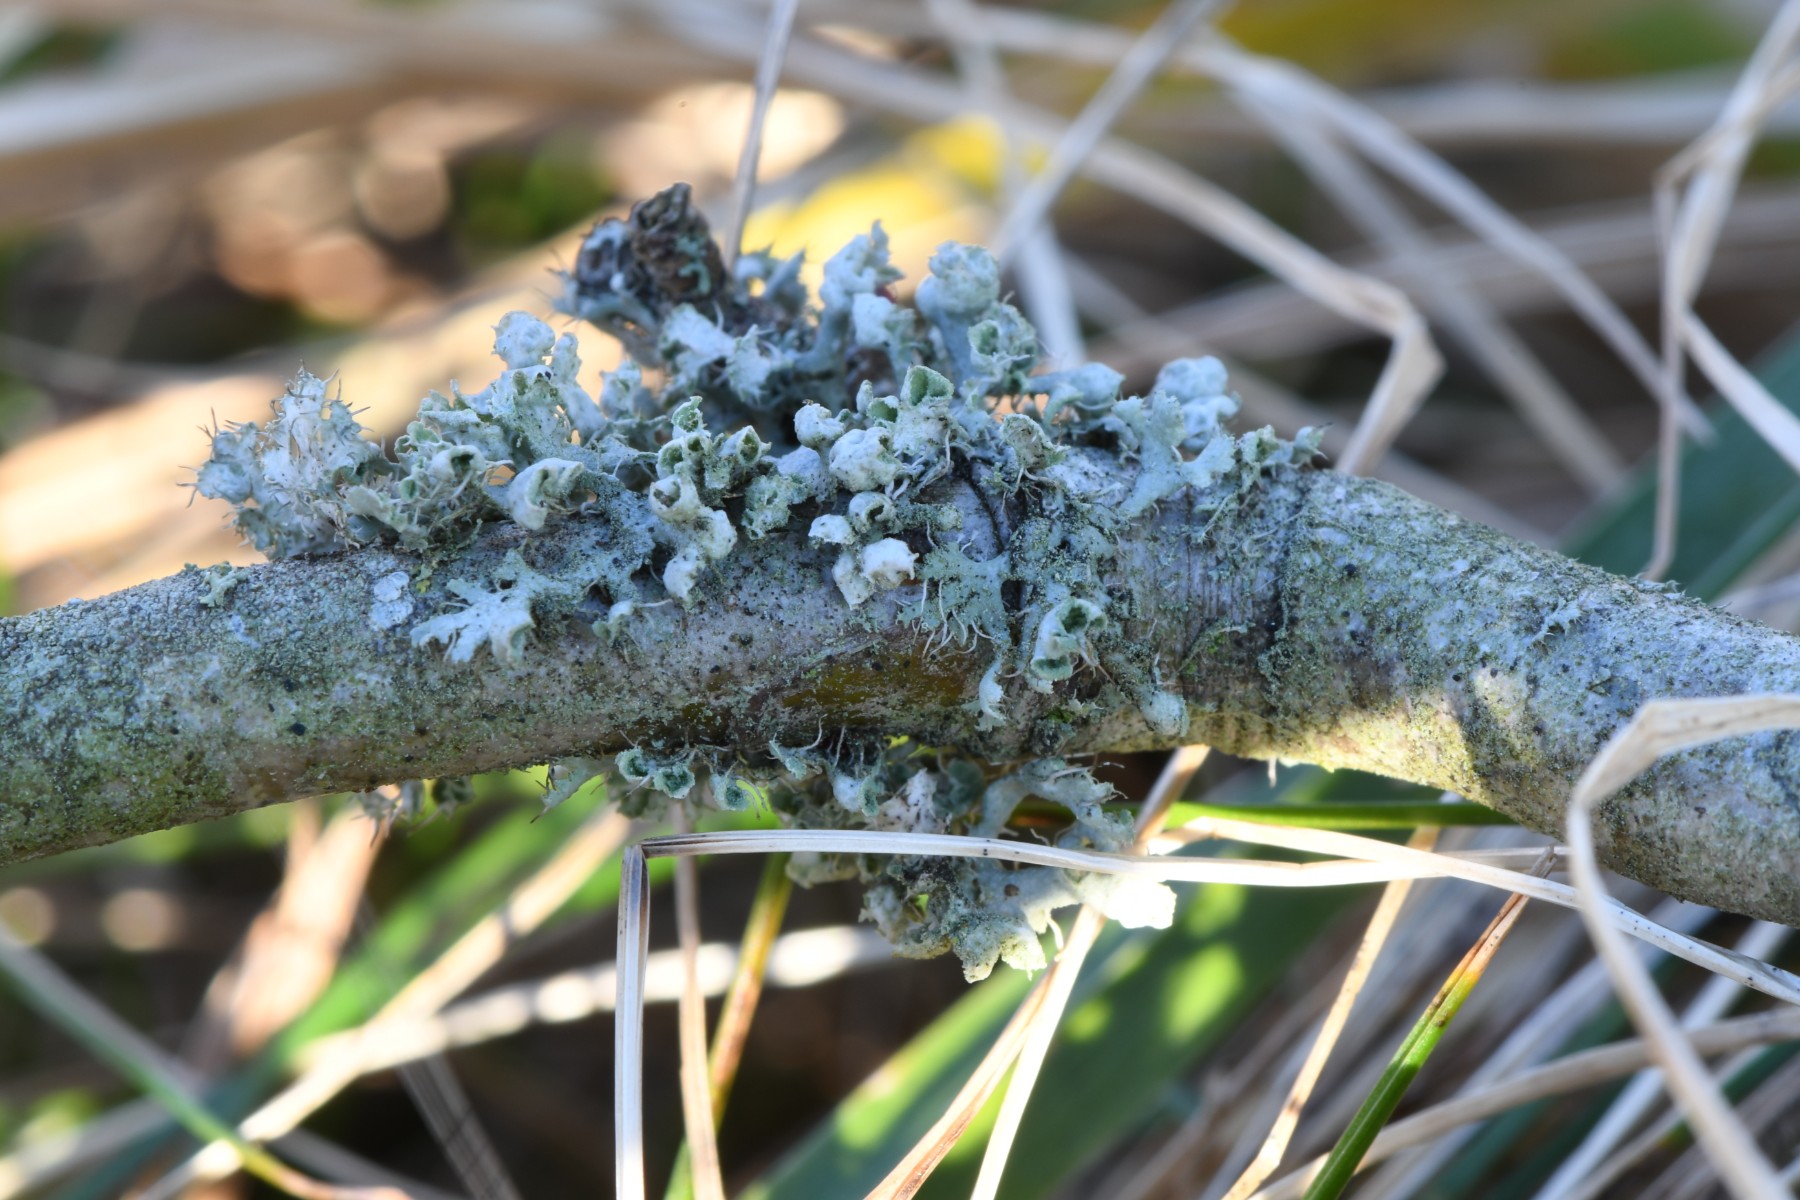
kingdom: Fungi
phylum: Ascomycota
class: Lecanoromycetes
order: Caliciales
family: Physciaceae
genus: Physcia
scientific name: Physcia adscendens
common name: hætte-rosetlav
